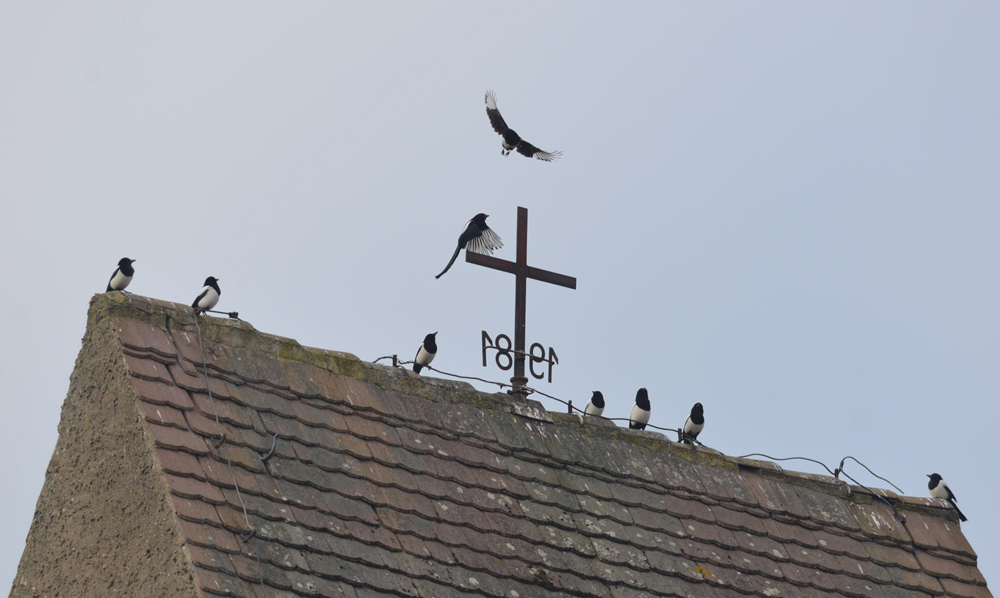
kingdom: Animalia
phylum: Chordata
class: Aves
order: Passeriformes
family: Corvidae
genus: Pica
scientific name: Pica pica
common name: Eurasian magpie
